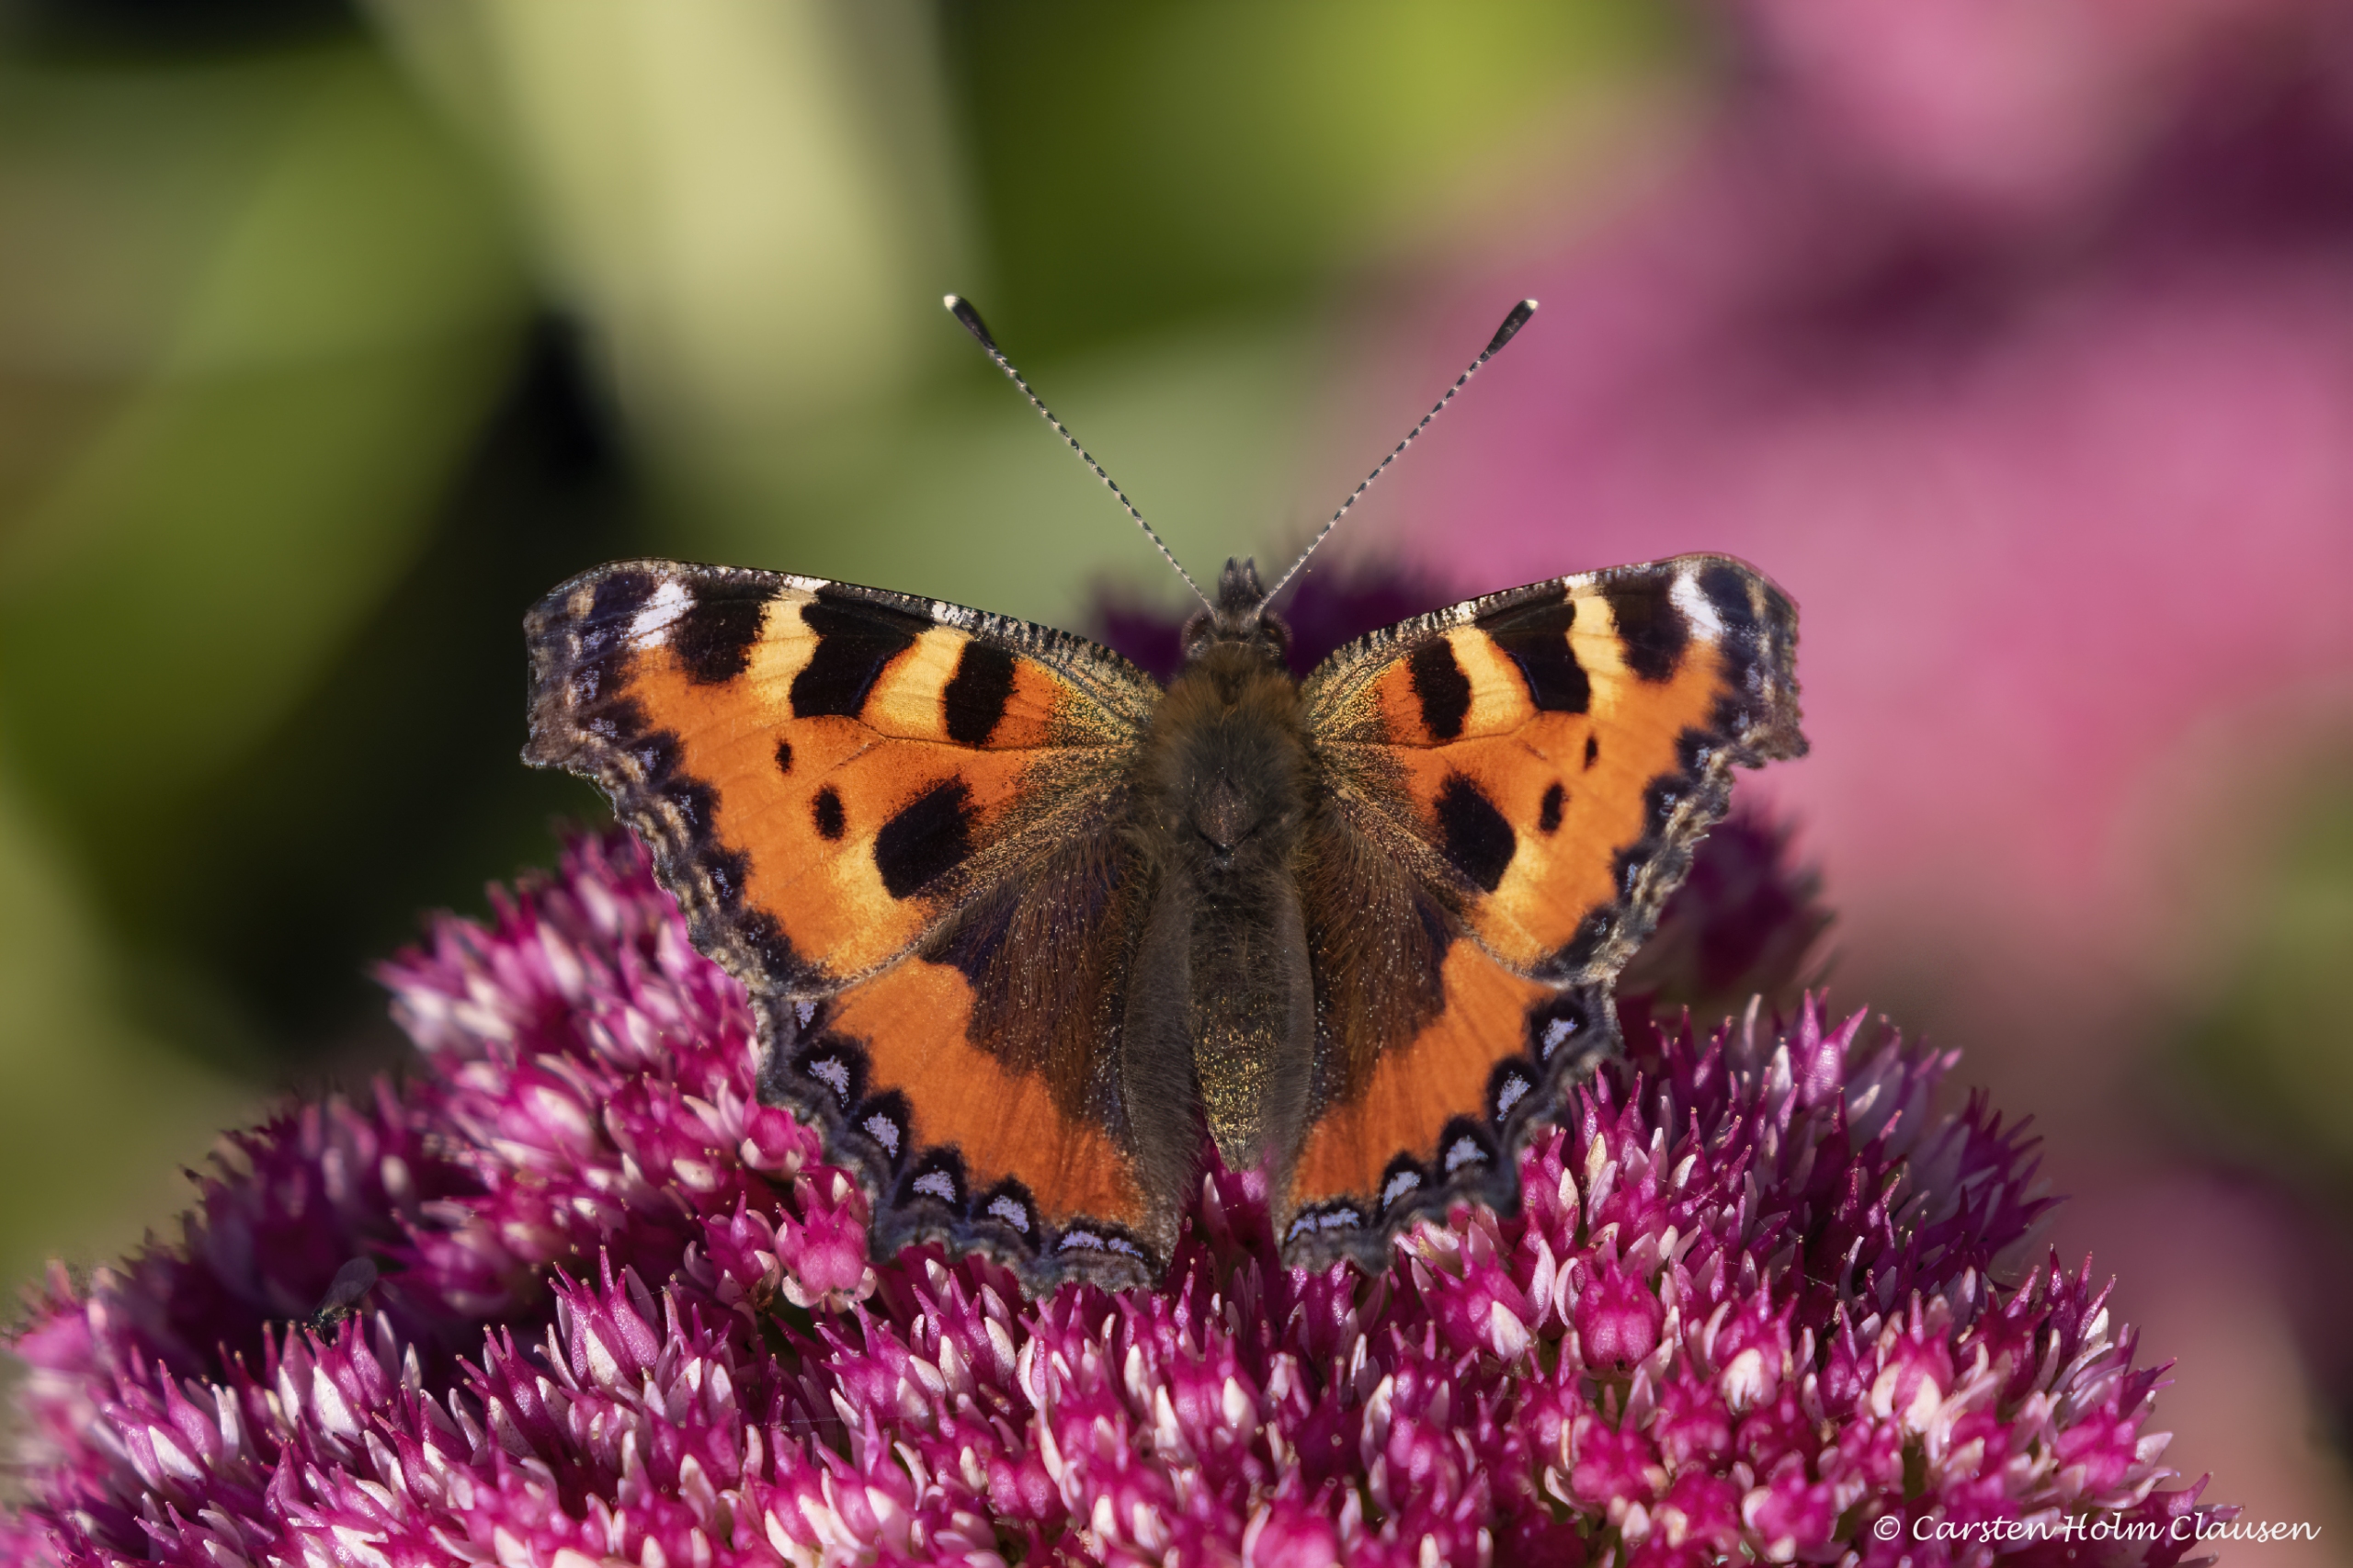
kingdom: Animalia
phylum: Arthropoda
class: Insecta
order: Lepidoptera
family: Nymphalidae
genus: Aglais
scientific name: Aglais urticae
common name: Nældens takvinge
